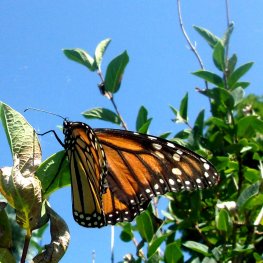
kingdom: Animalia
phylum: Arthropoda
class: Insecta
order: Lepidoptera
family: Nymphalidae
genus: Danaus
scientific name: Danaus plexippus
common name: Monarch
